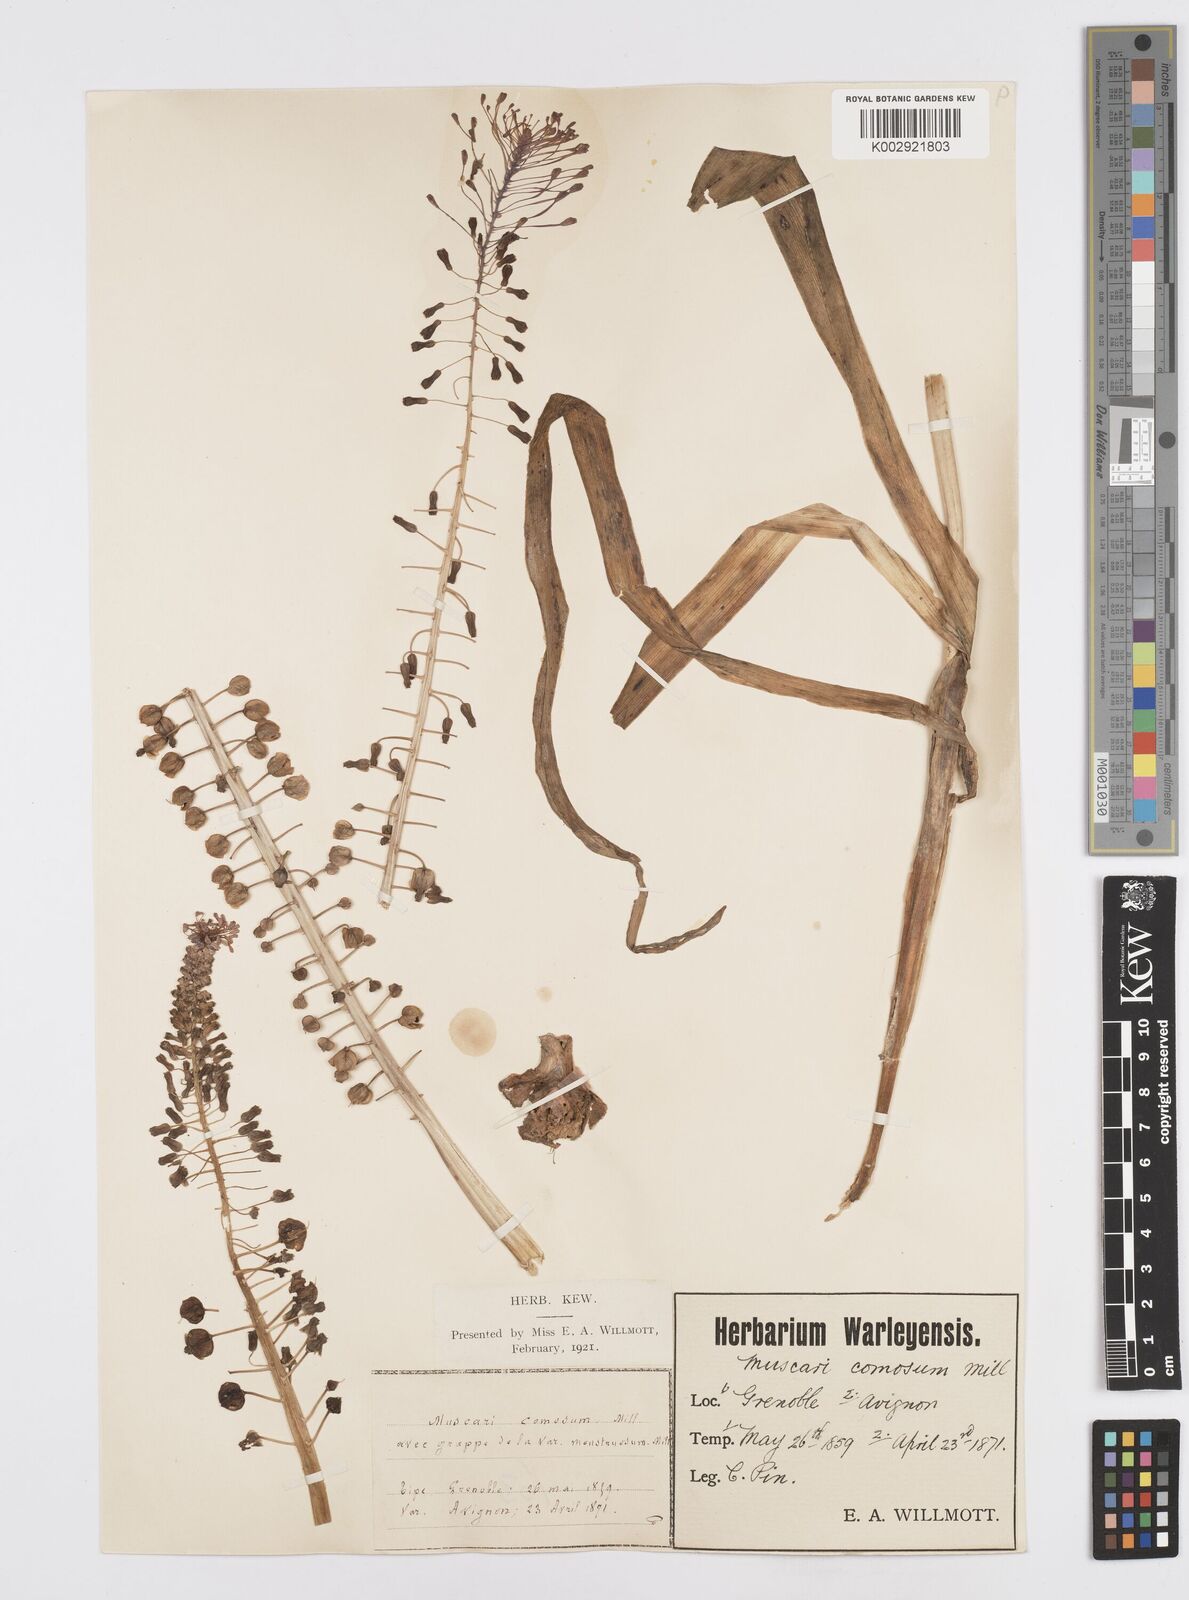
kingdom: Plantae
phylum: Tracheophyta
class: Liliopsida
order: Asparagales
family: Asparagaceae
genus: Muscari
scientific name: Muscari comosum
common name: Tassel hyacinth
